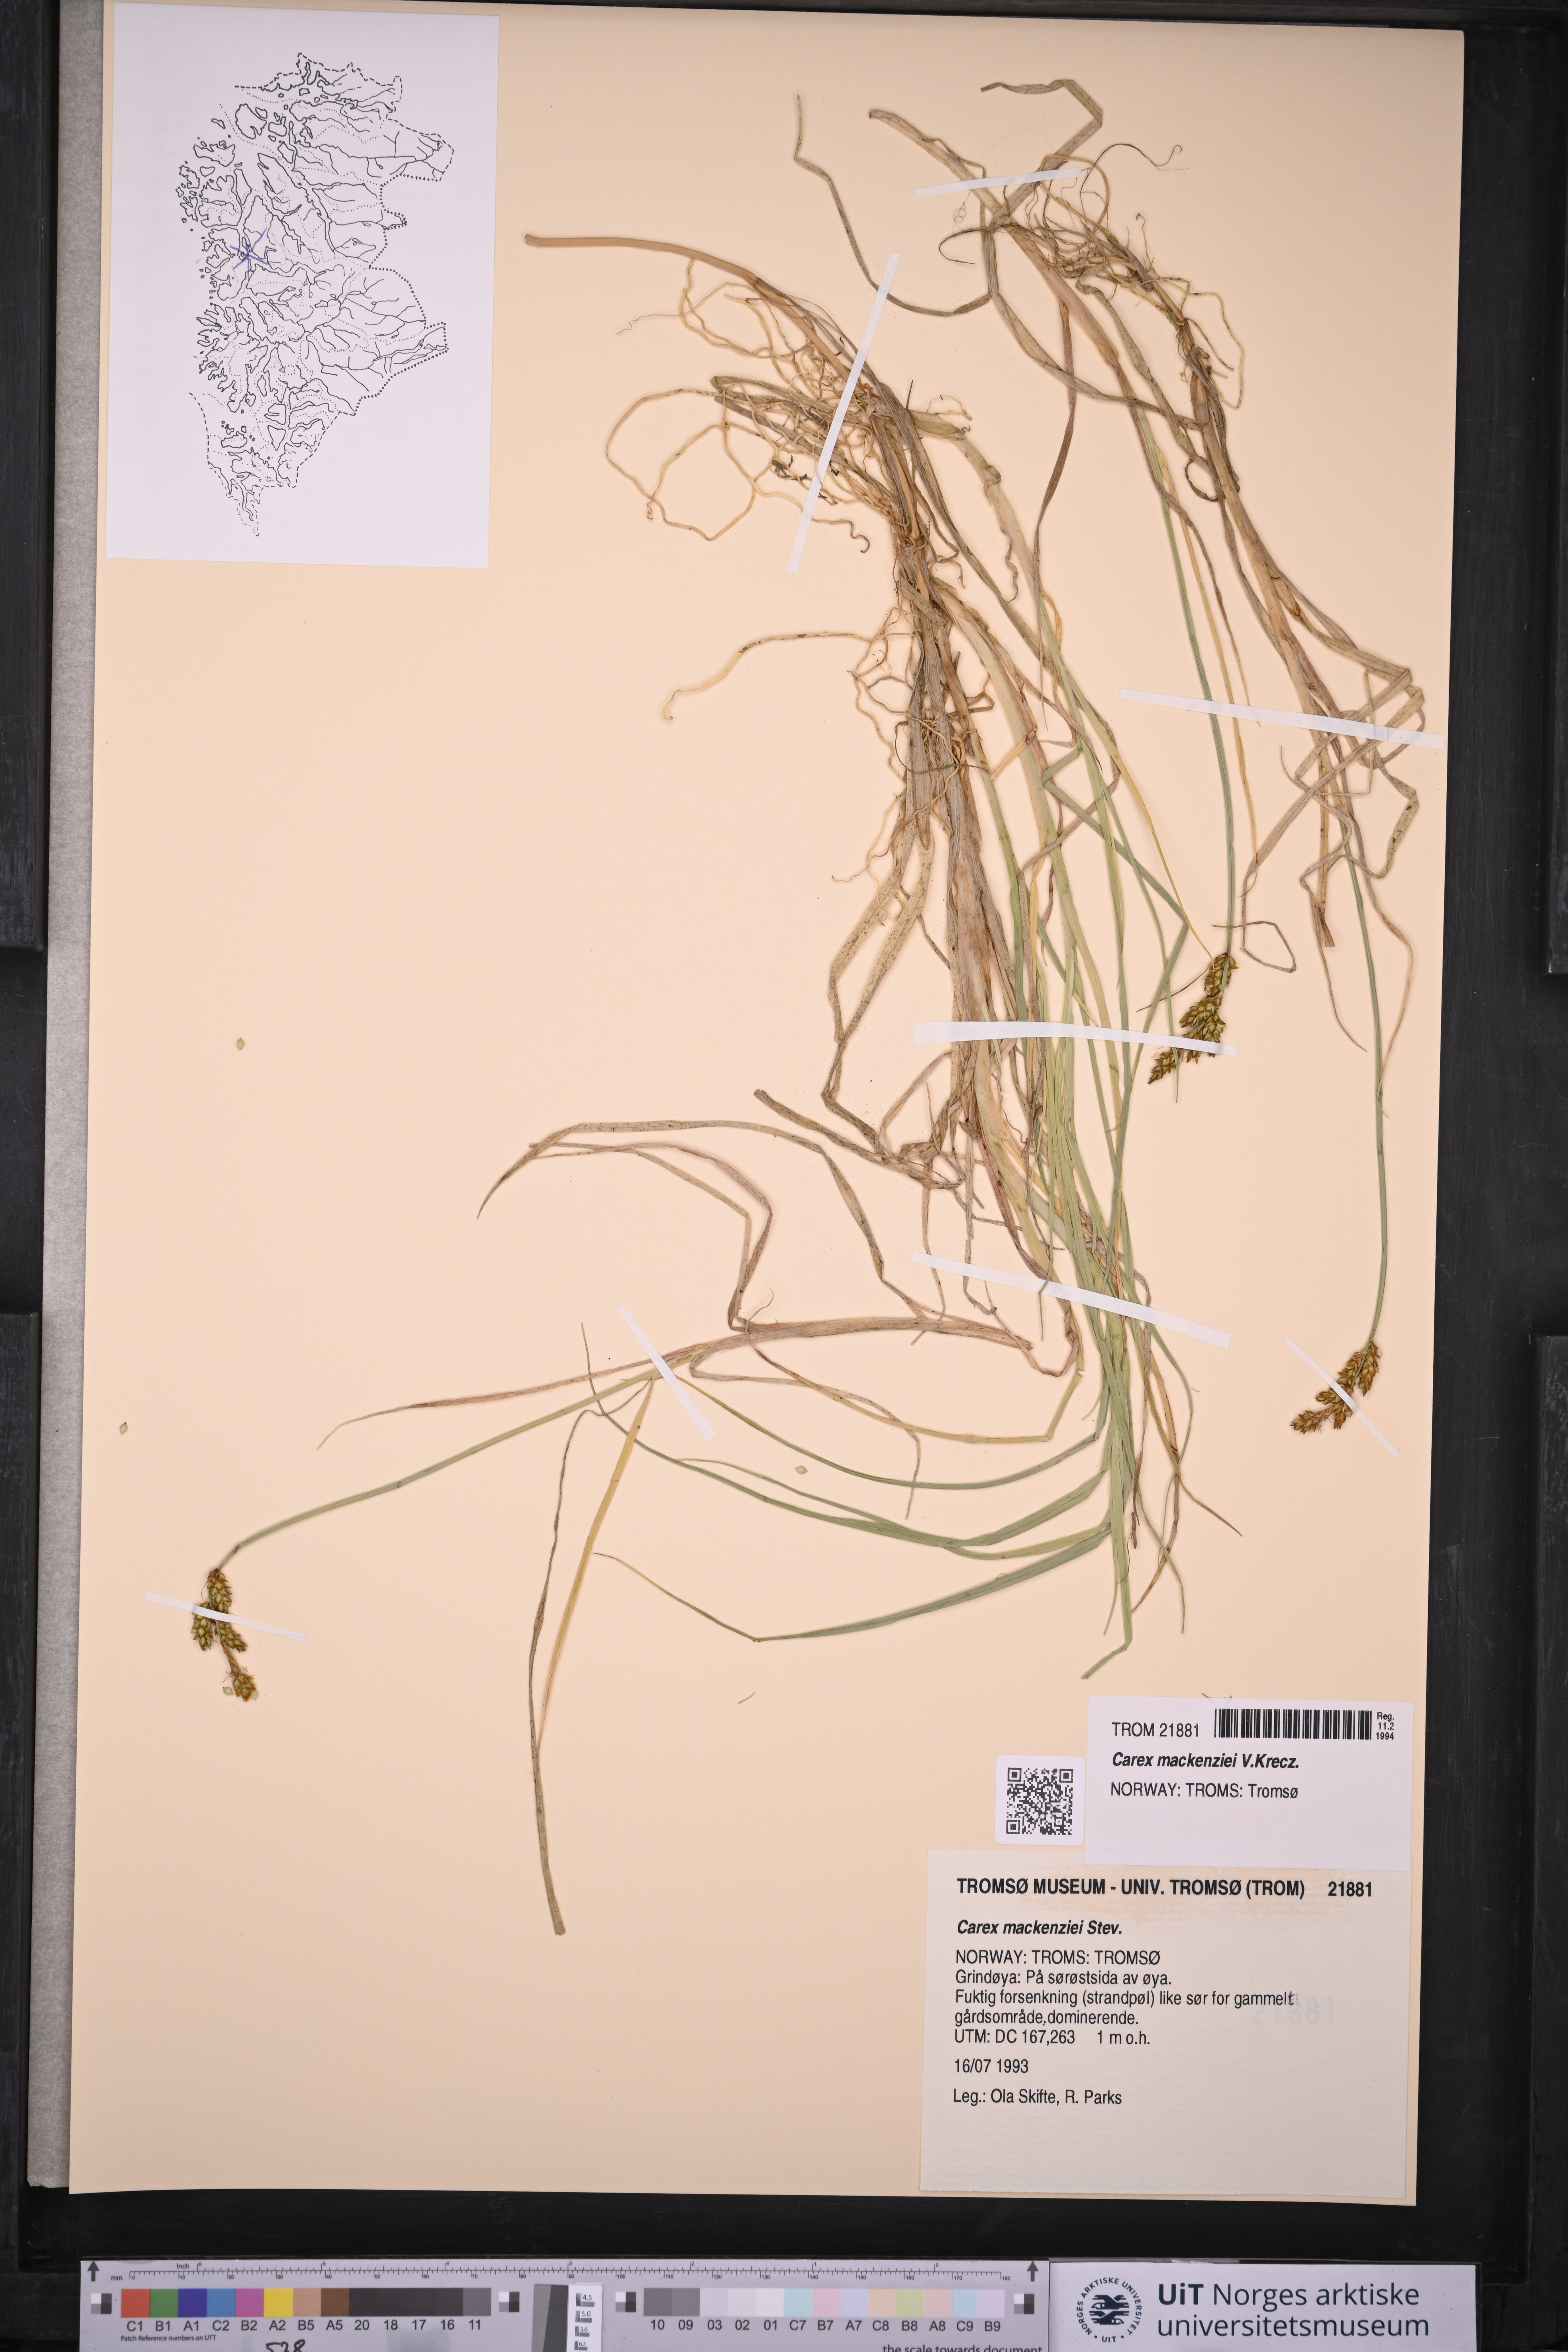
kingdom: Plantae
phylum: Tracheophyta
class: Liliopsida
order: Poales
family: Cyperaceae
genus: Carex
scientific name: Carex mackenziei
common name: Mackenzie's sedge
